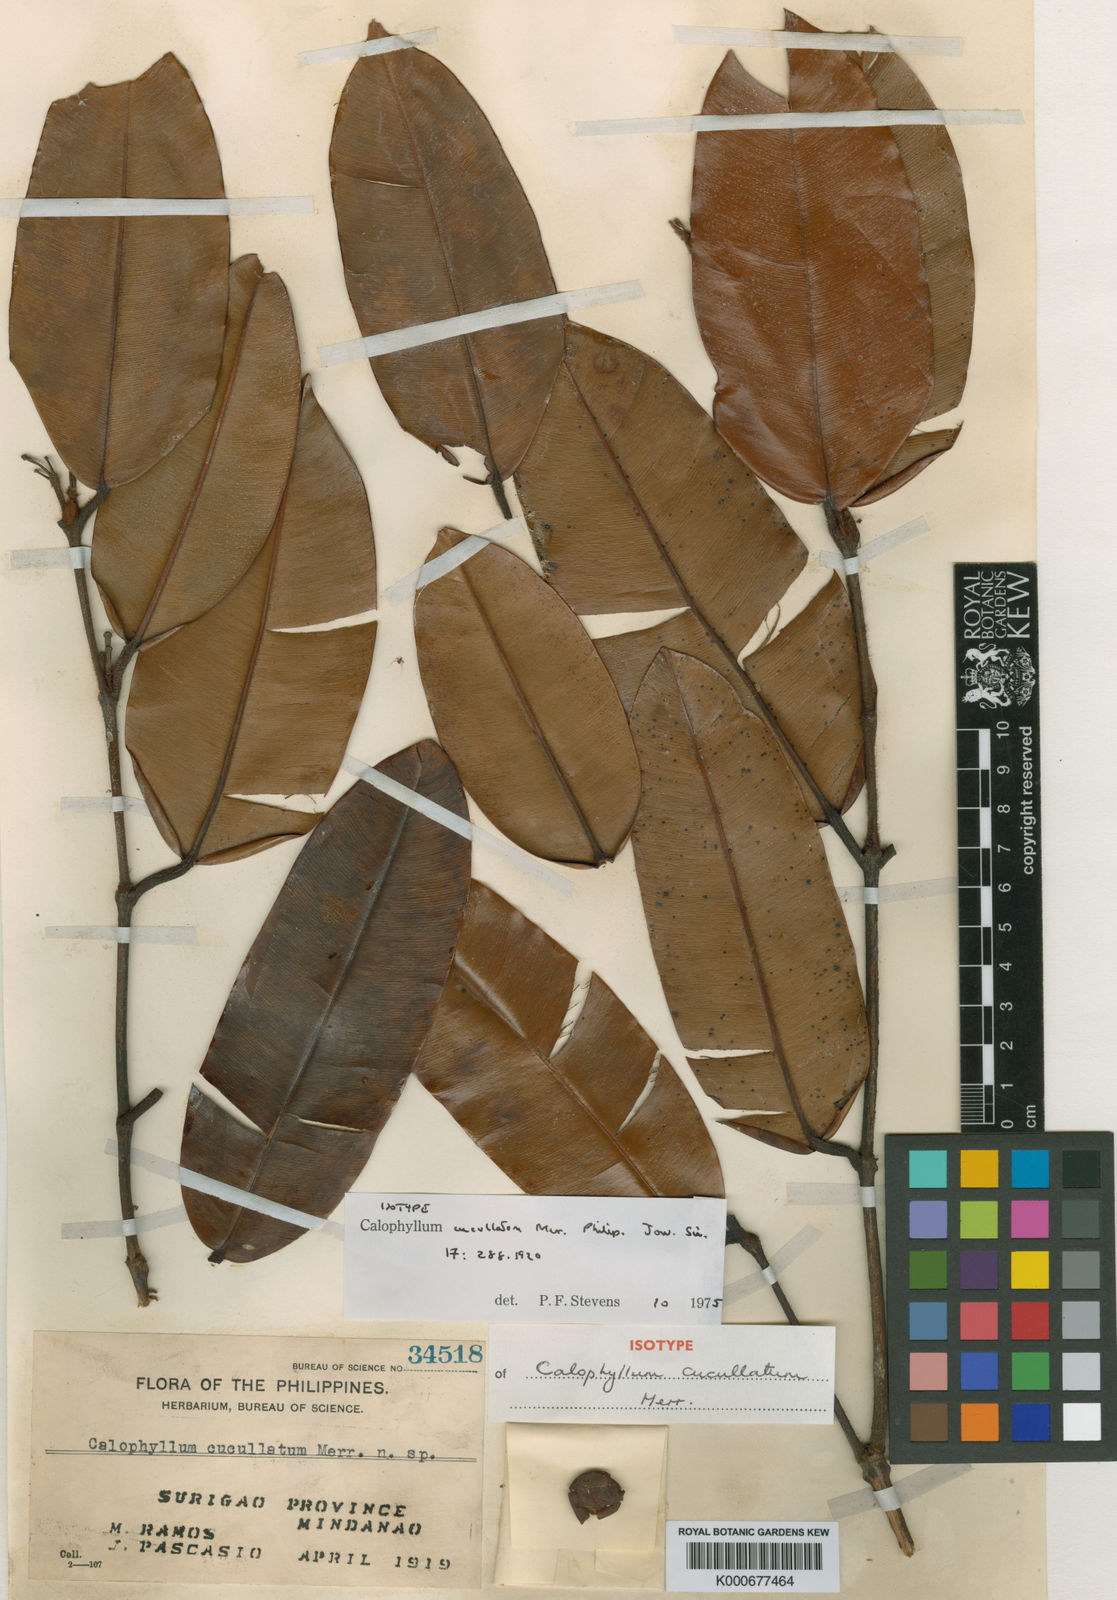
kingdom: Plantae
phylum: Tracheophyta
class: Magnoliopsida
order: Malpighiales
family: Calophyllaceae
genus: Calophyllum
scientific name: Calophyllum cucullatum
